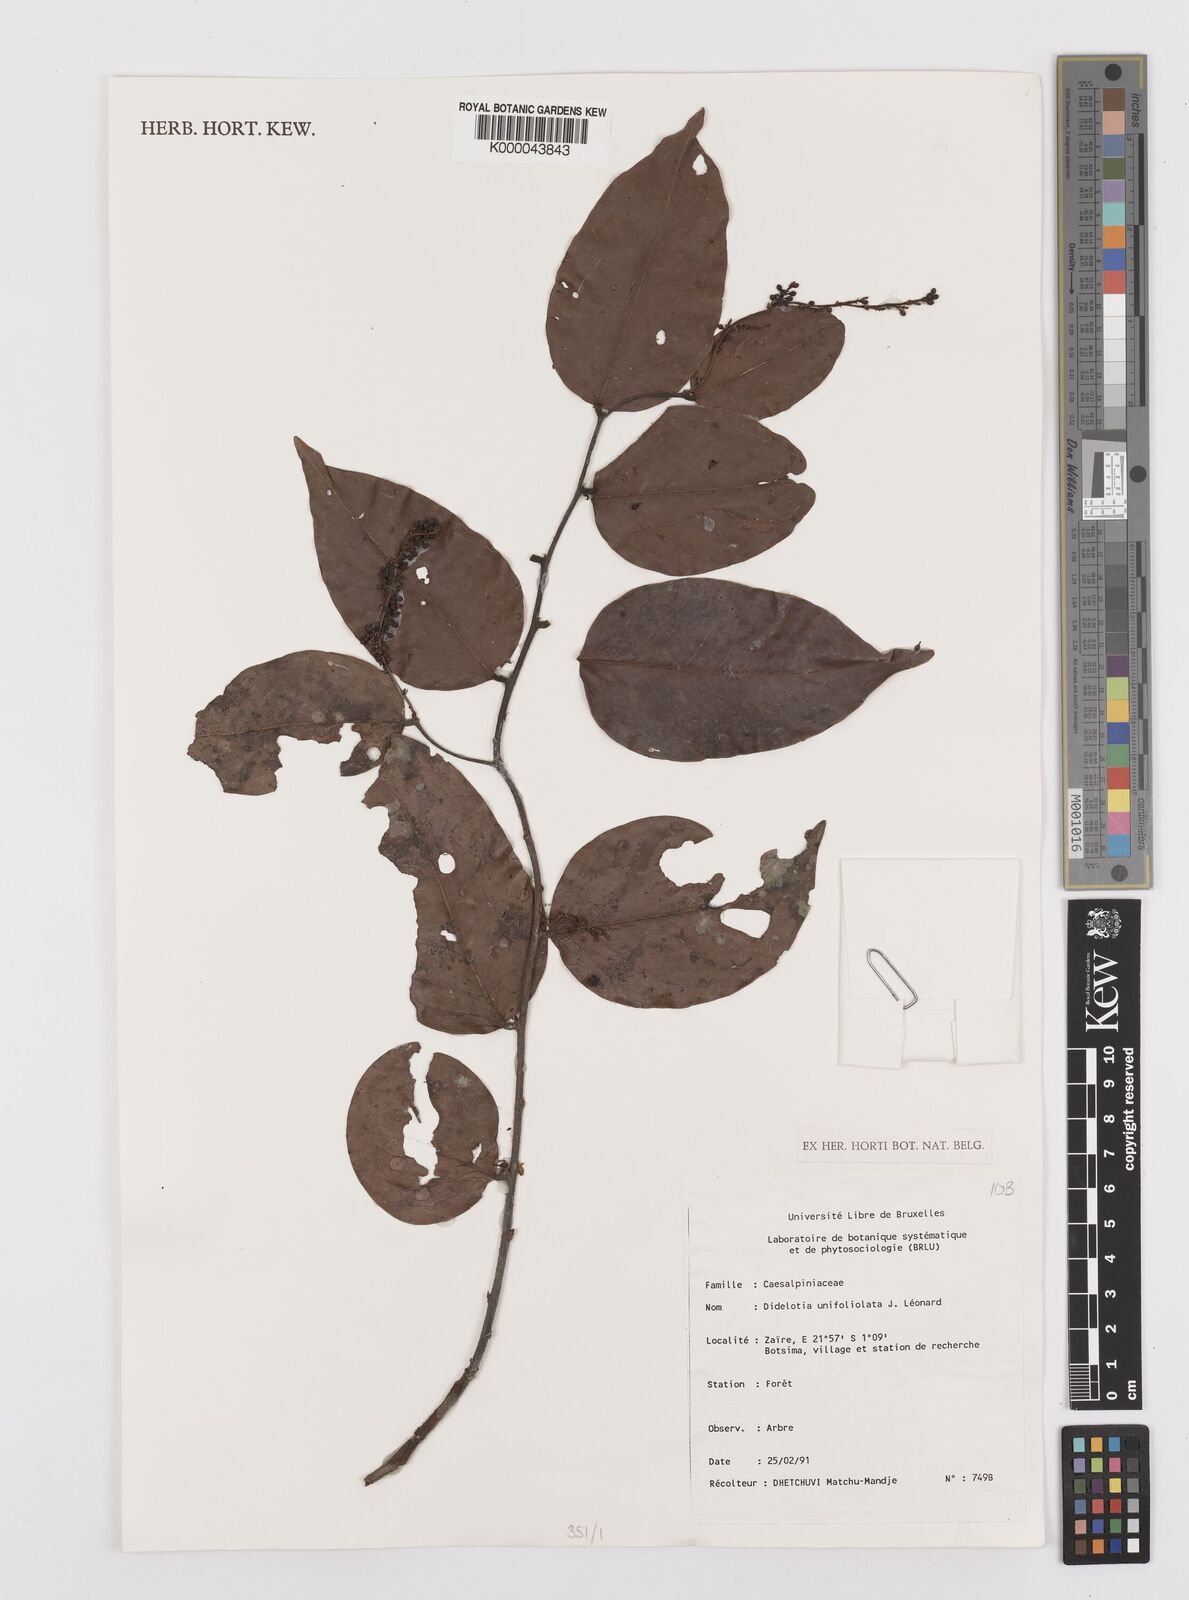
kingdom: Plantae
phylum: Tracheophyta
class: Magnoliopsida
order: Fabales
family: Fabaceae
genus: Didelotia
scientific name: Didelotia
